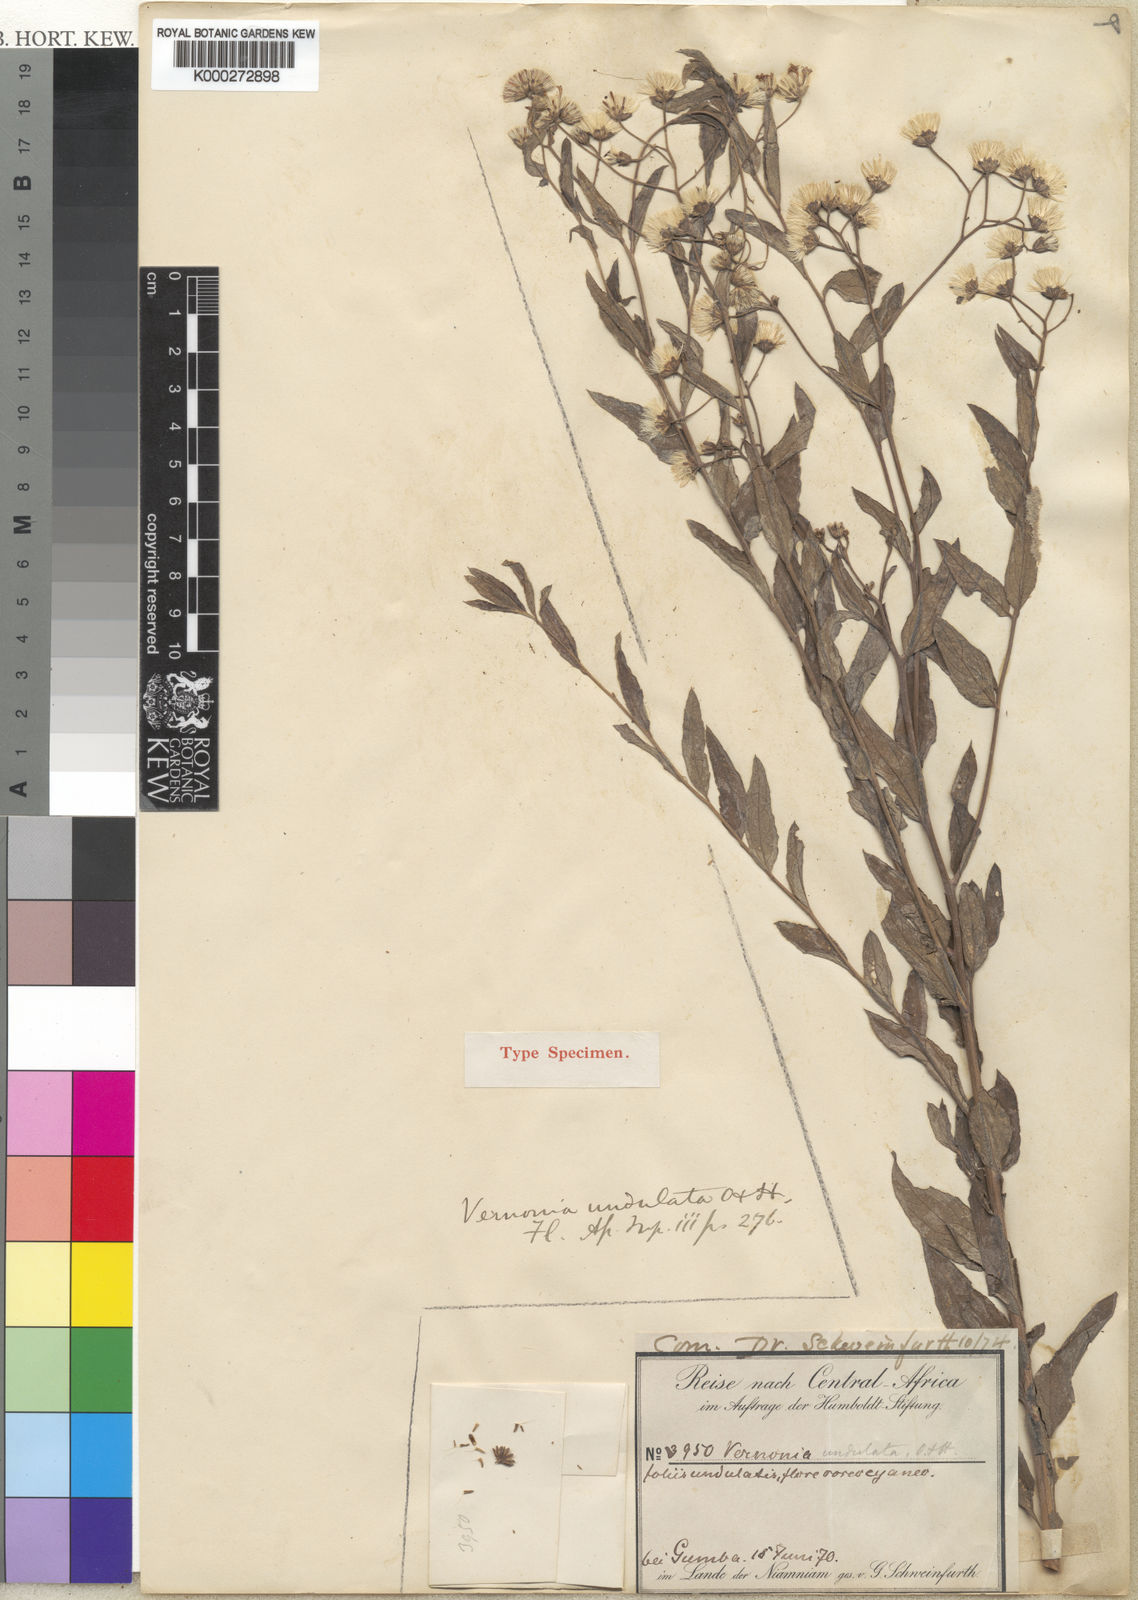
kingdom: Plantae
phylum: Tracheophyta
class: Magnoliopsida
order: Asterales
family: Asteraceae
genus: Vernonia
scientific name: Vernonia golungensis
